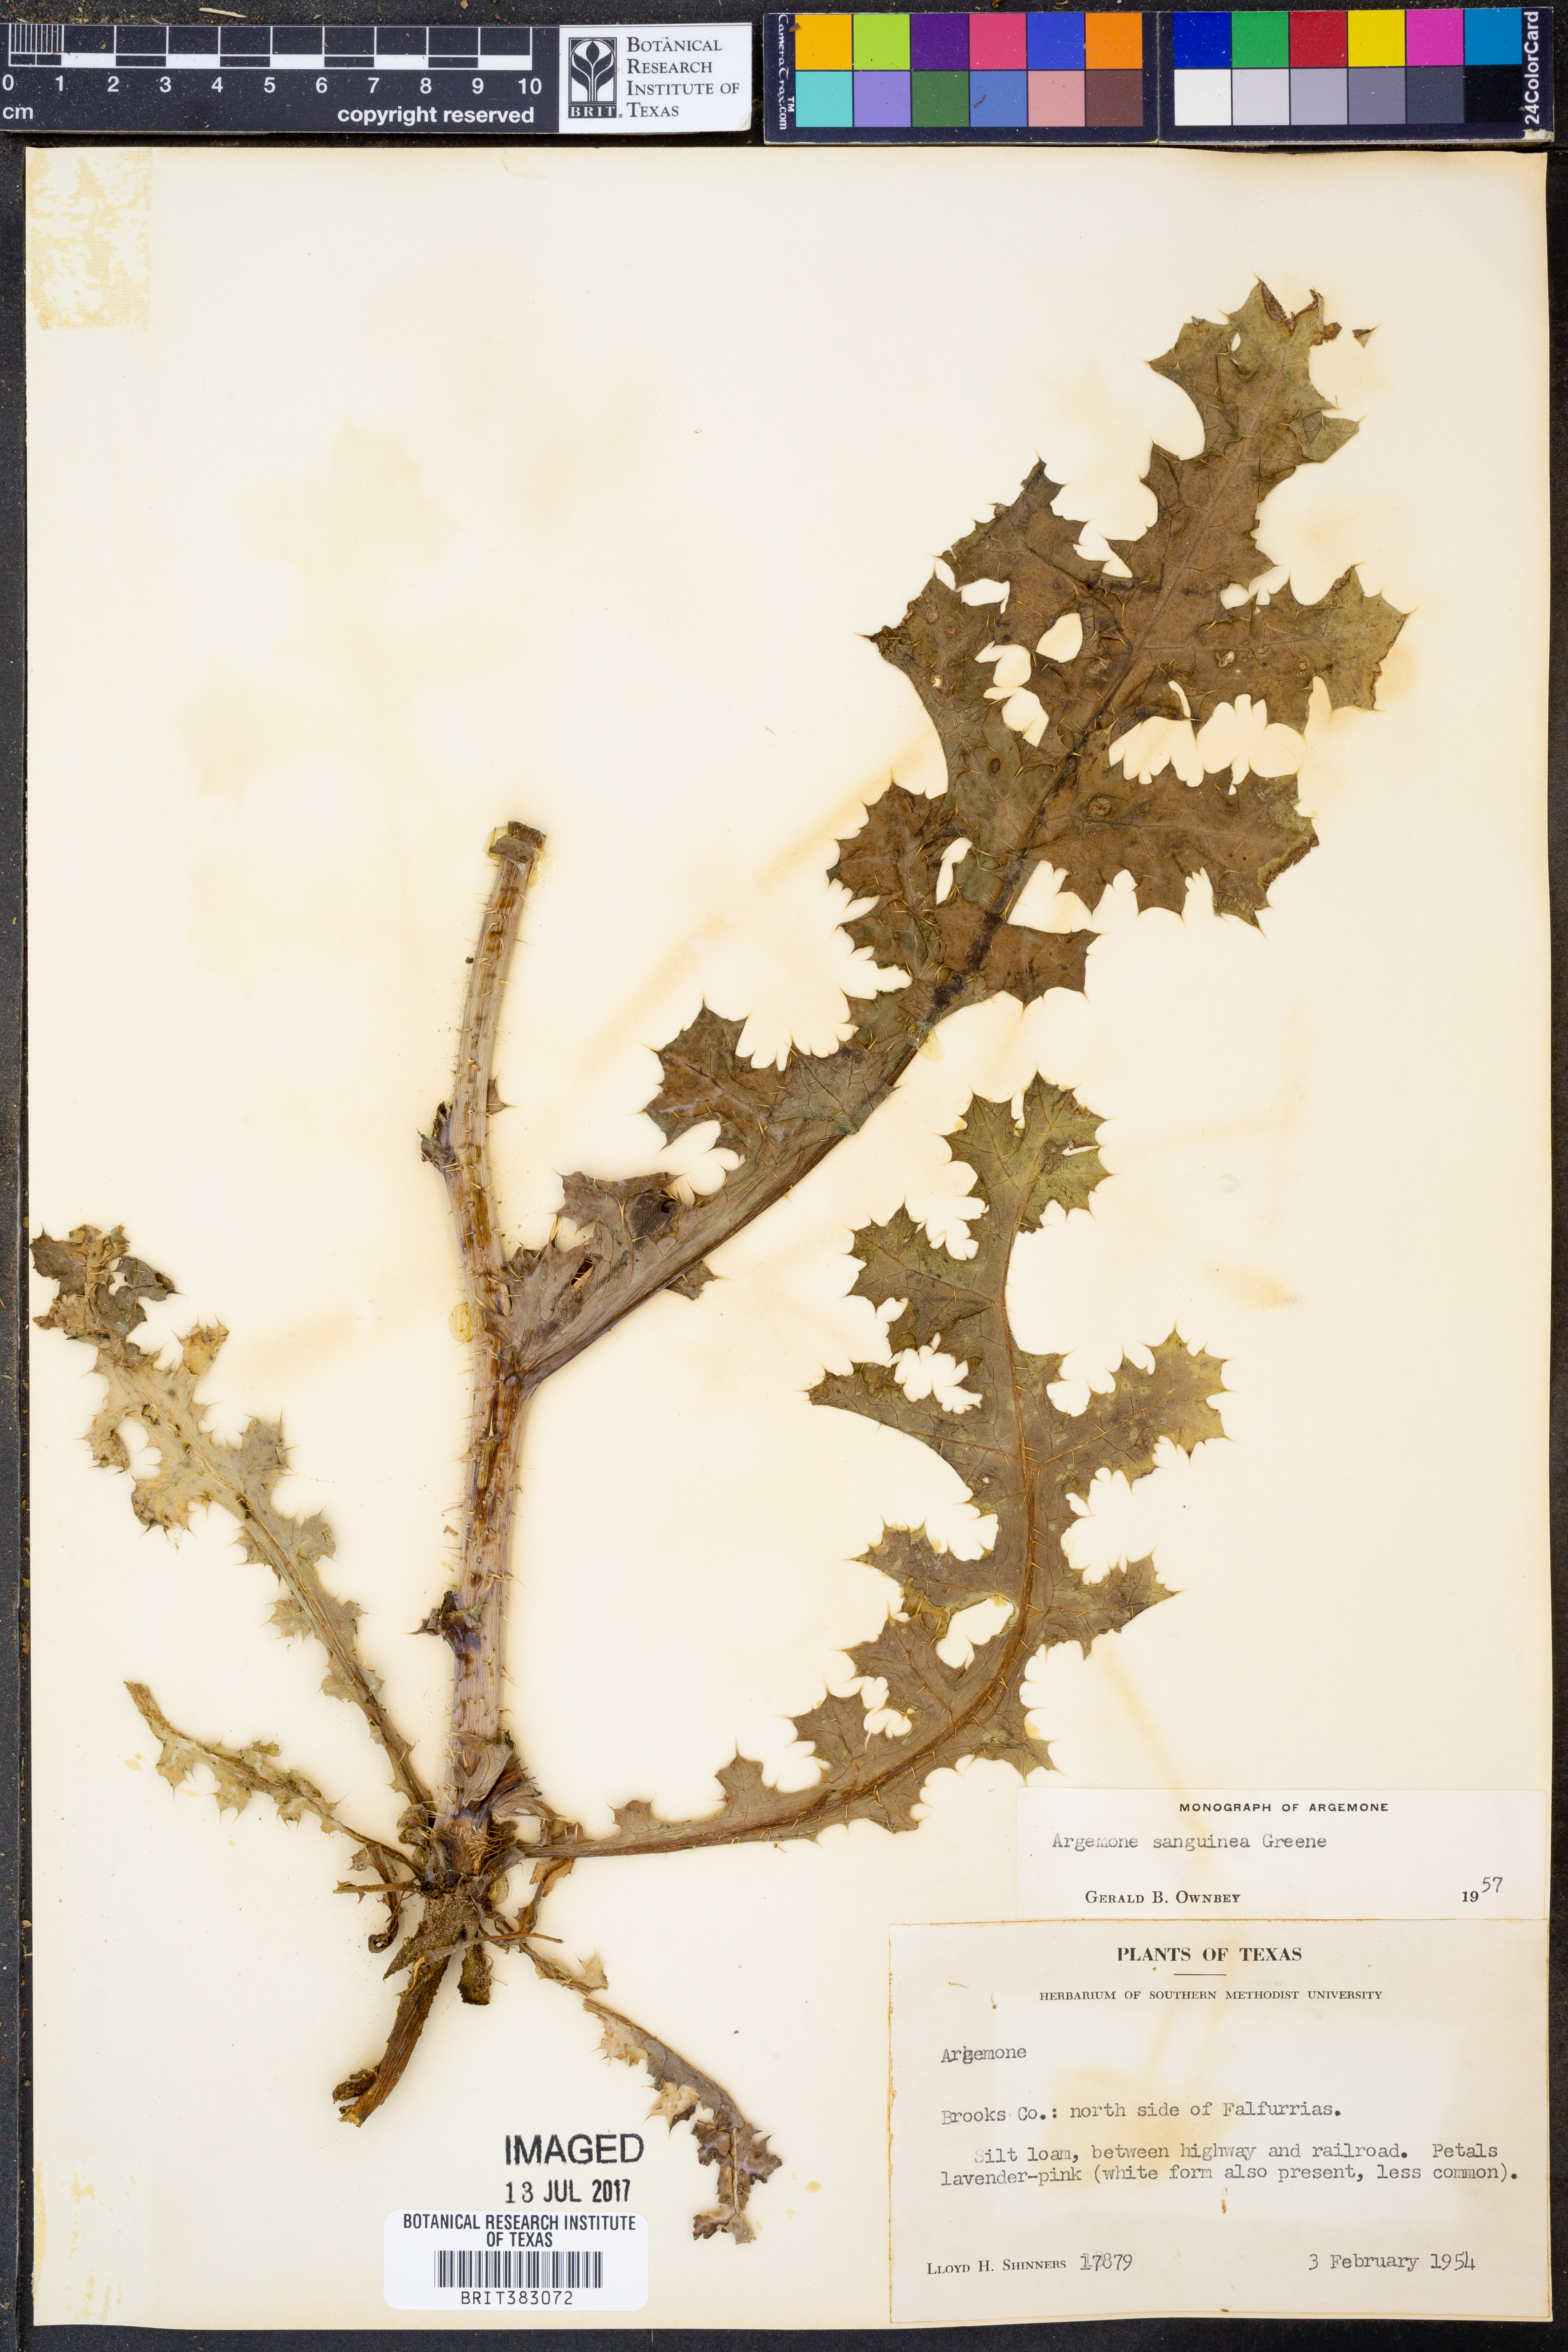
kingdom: Plantae
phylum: Tracheophyta
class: Magnoliopsida
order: Ranunculales
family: Papaveraceae
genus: Argemone
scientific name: Argemone sanguinea
